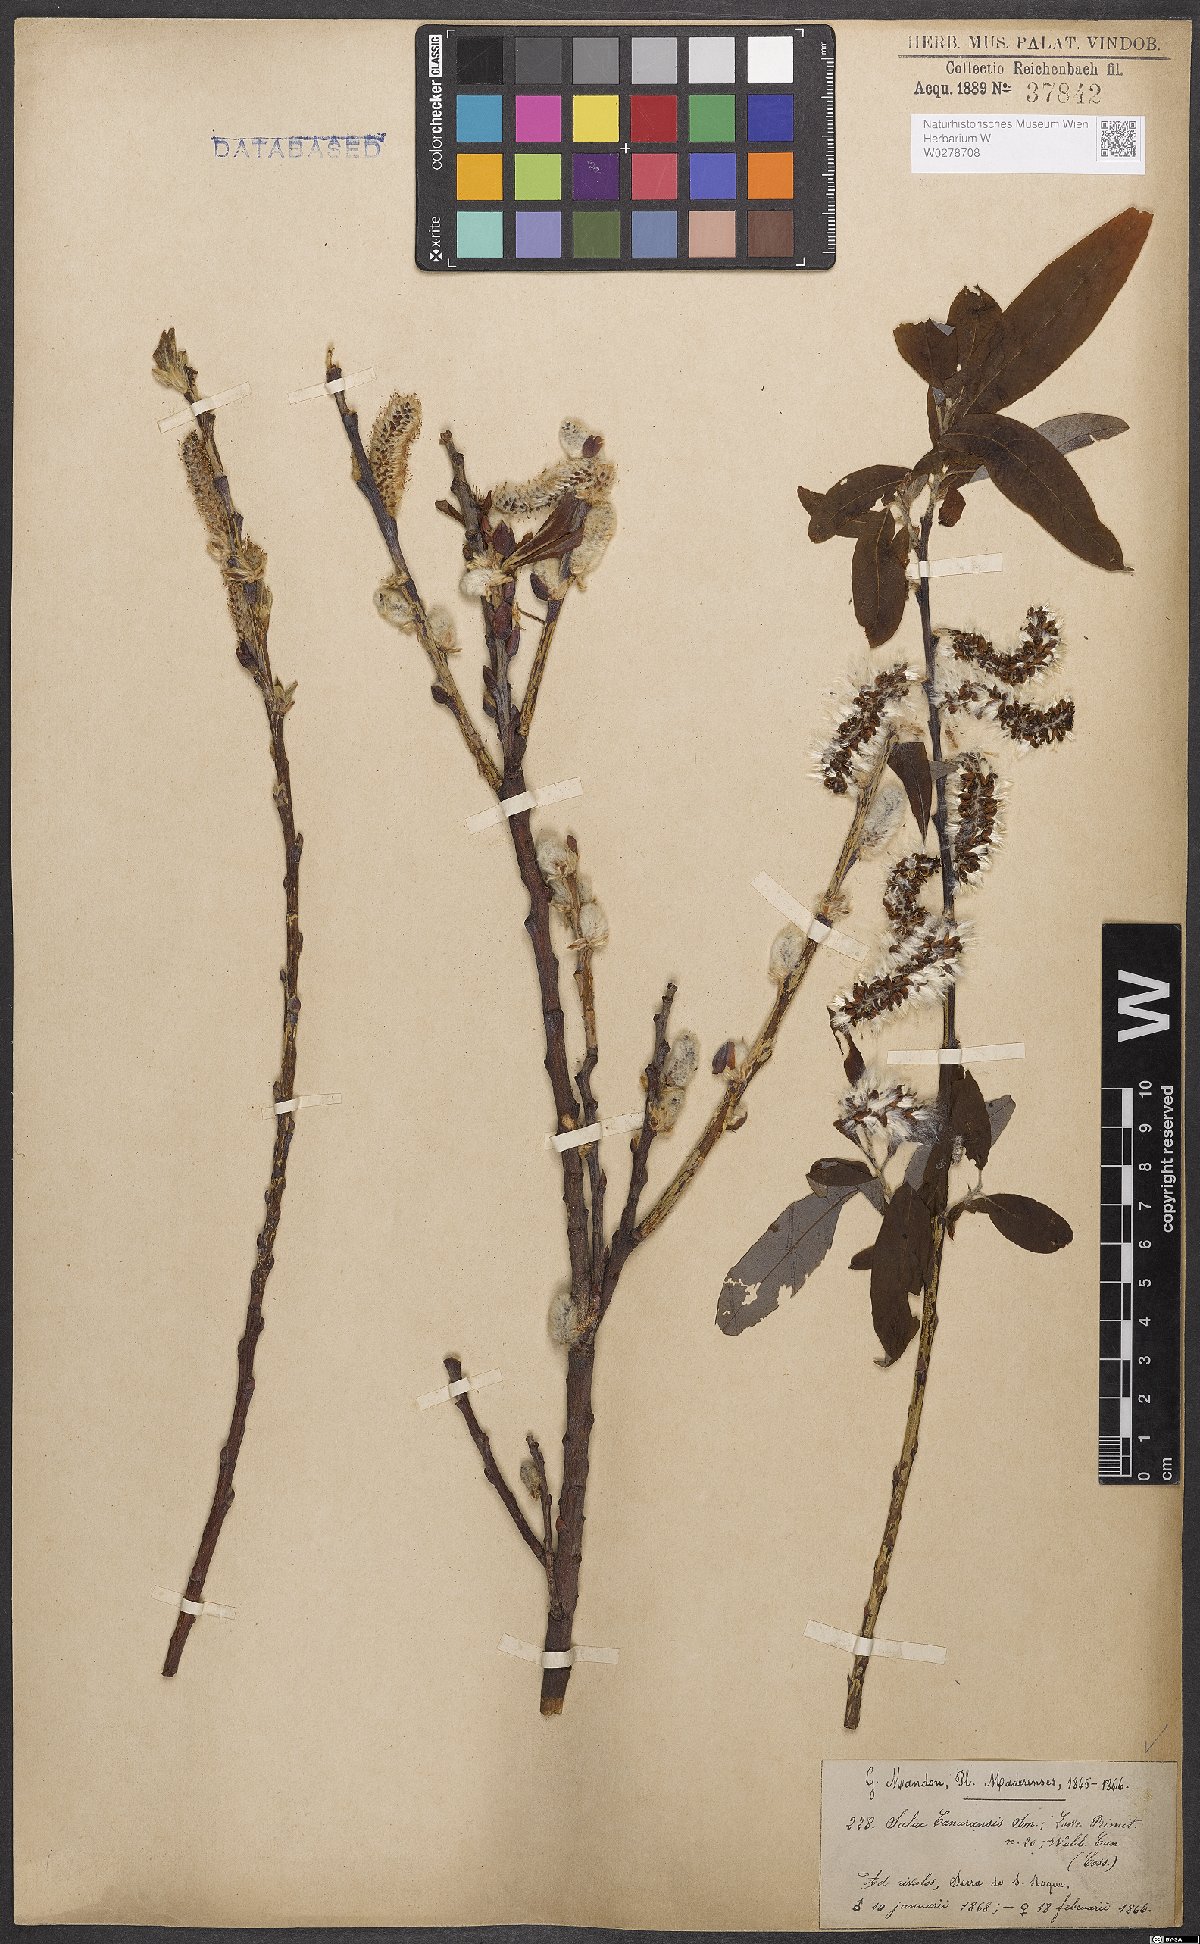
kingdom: Plantae
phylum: Tracheophyta
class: Magnoliopsida
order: Malpighiales
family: Salicaceae
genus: Salix
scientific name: Salix canariensis
